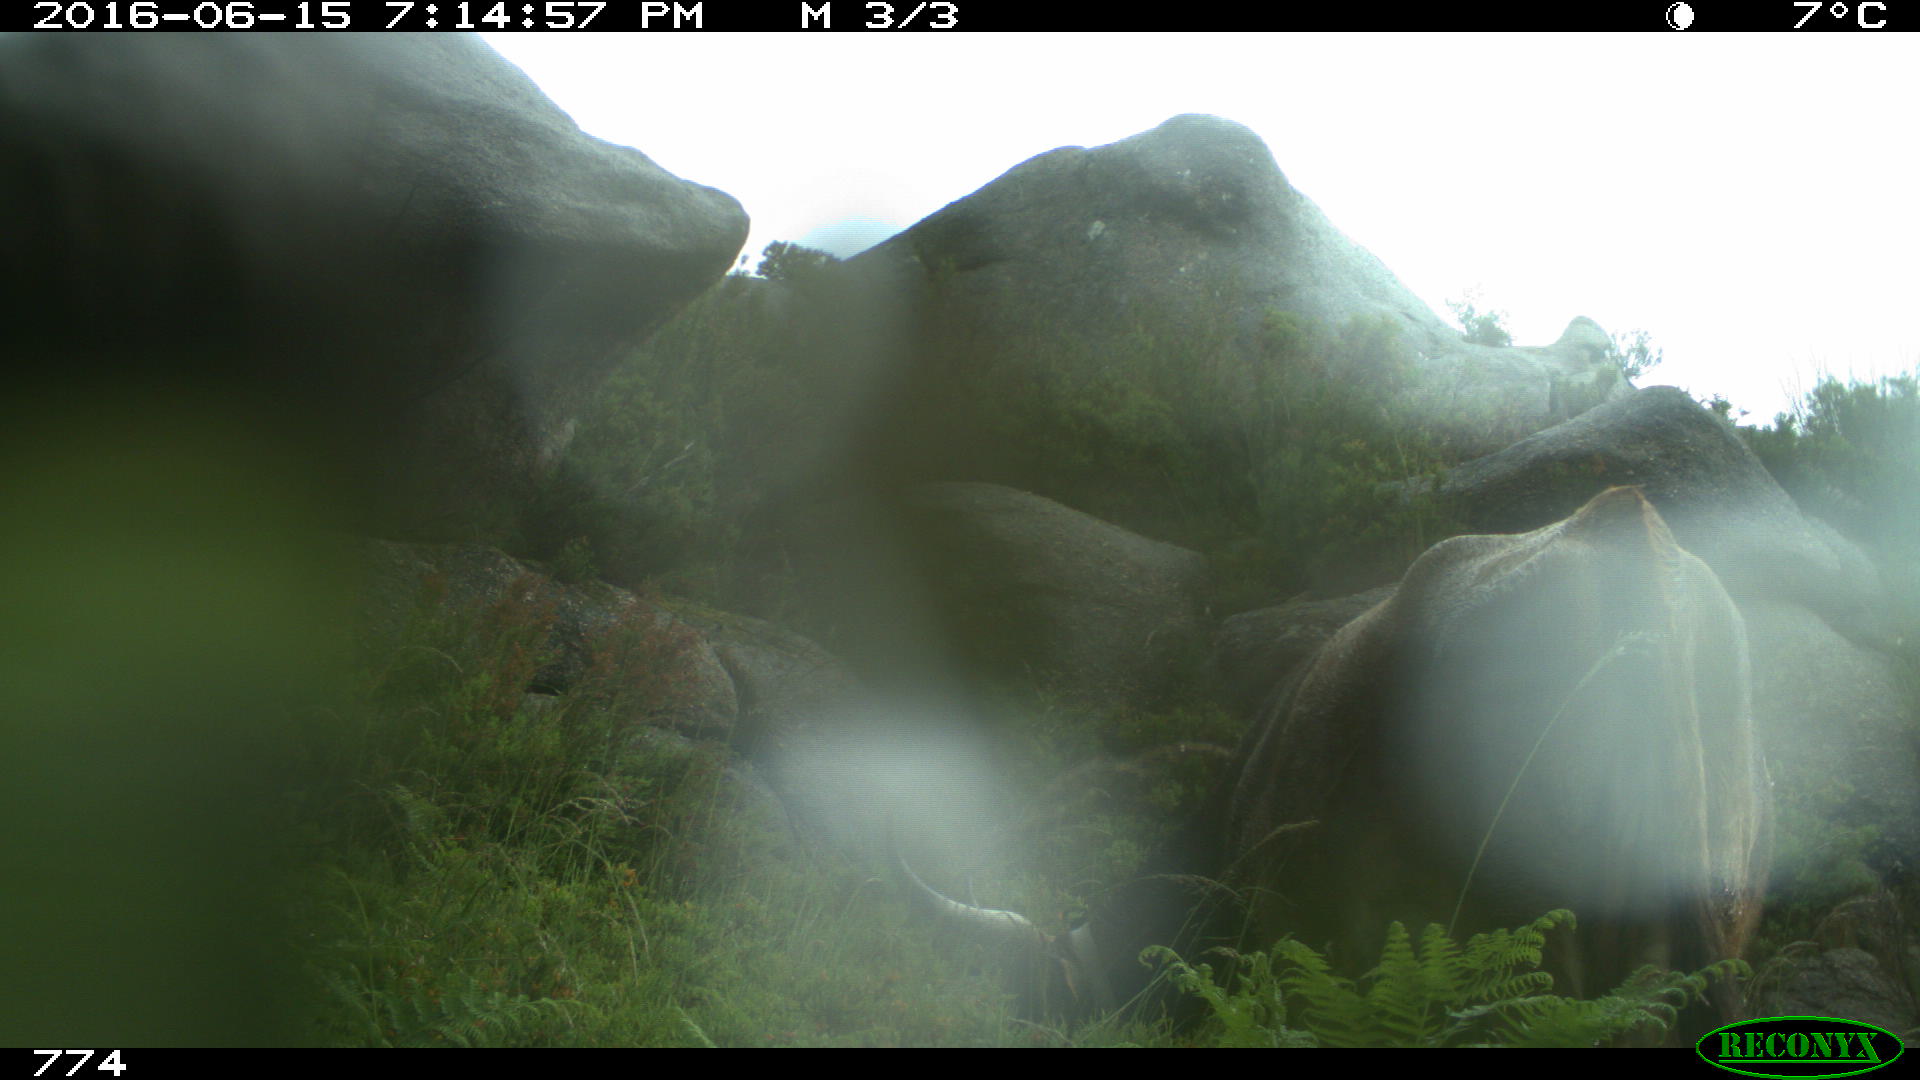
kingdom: Animalia
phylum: Chordata
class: Mammalia
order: Artiodactyla
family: Bovidae
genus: Bos
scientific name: Bos taurus
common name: Domesticated cattle
